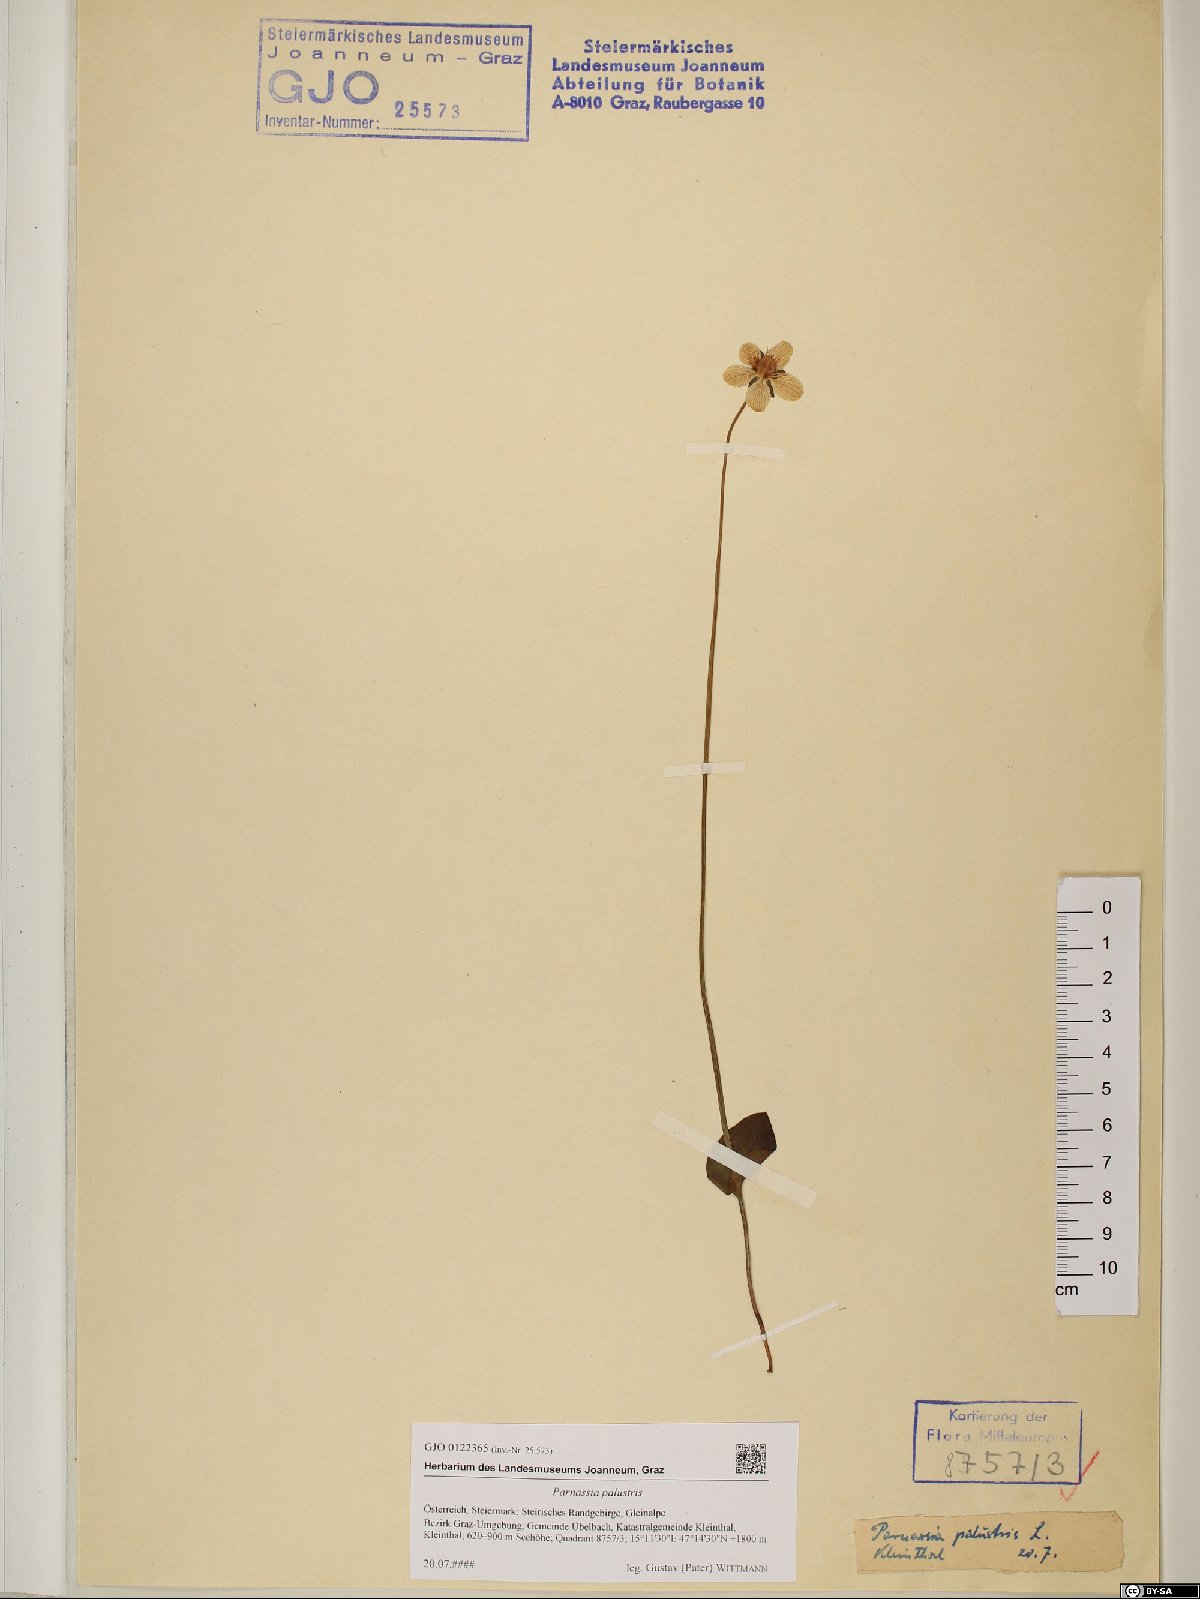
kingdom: Plantae
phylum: Tracheophyta
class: Magnoliopsida
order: Celastrales
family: Parnassiaceae
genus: Parnassia
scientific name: Parnassia palustris
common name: Grass-of-parnassus
